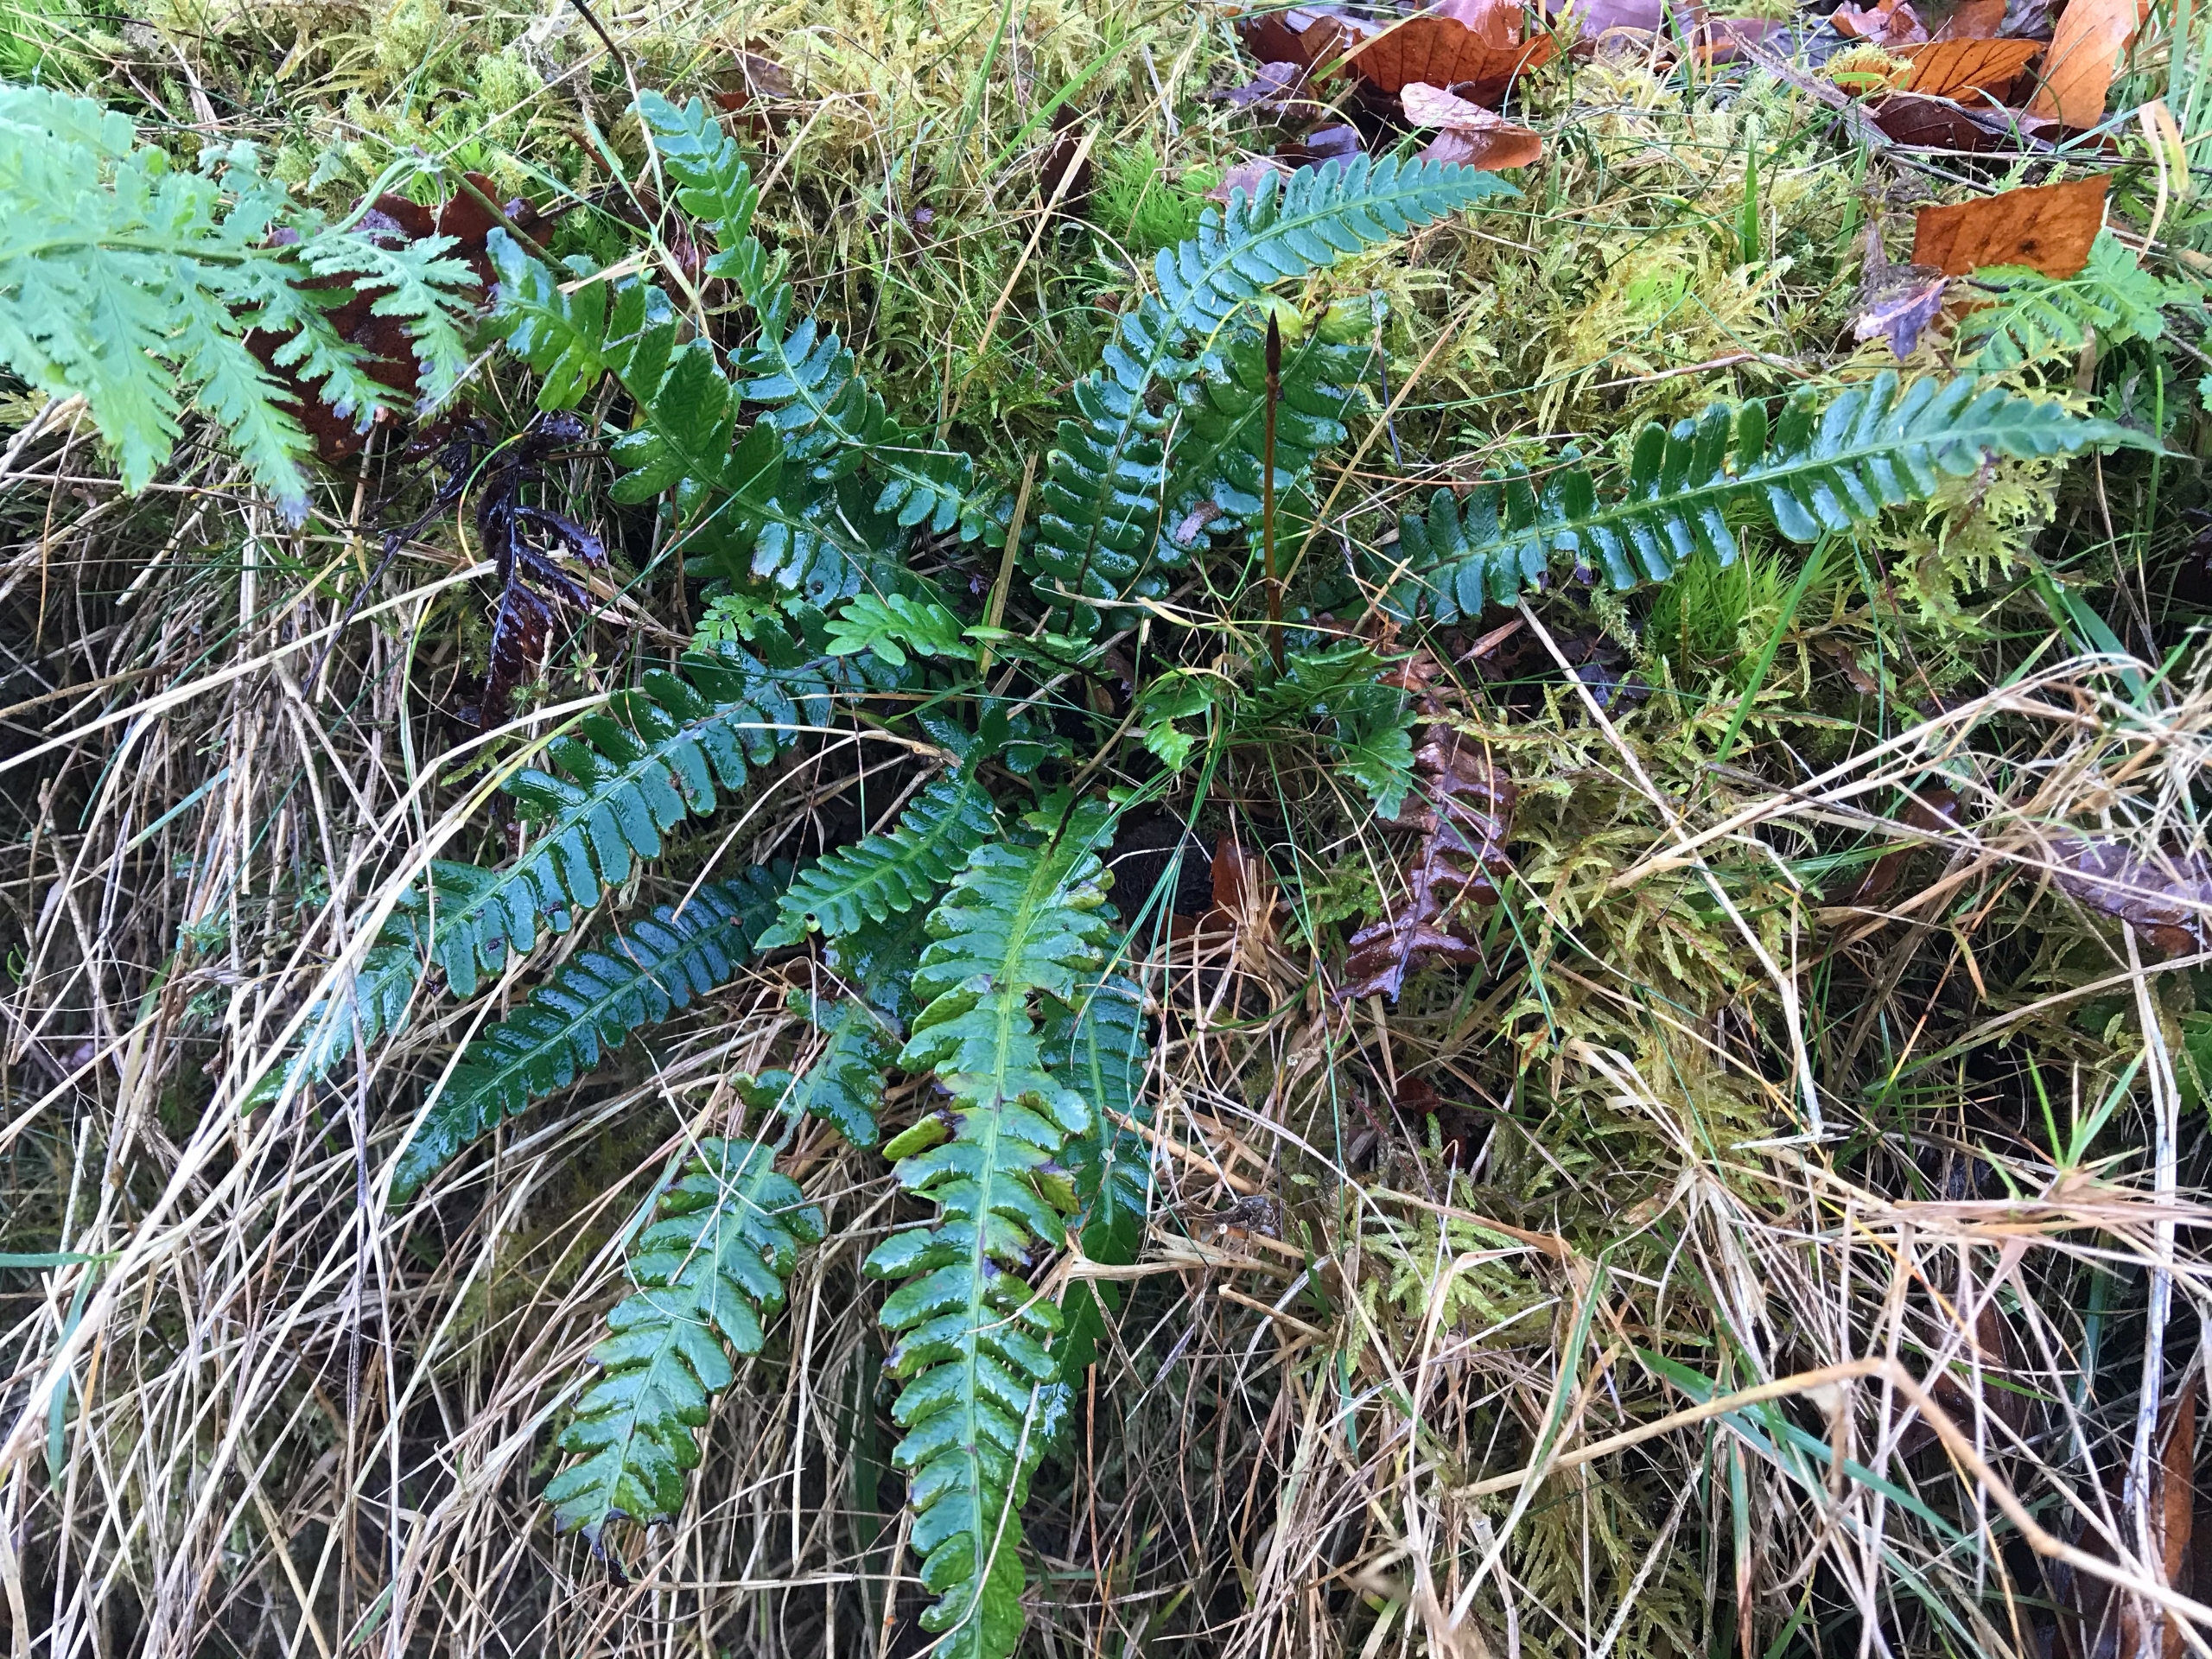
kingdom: Plantae
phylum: Tracheophyta
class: Polypodiopsida
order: Polypodiales
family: Blechnaceae
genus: Struthiopteris
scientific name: Struthiopteris spicant
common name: Kambregne
